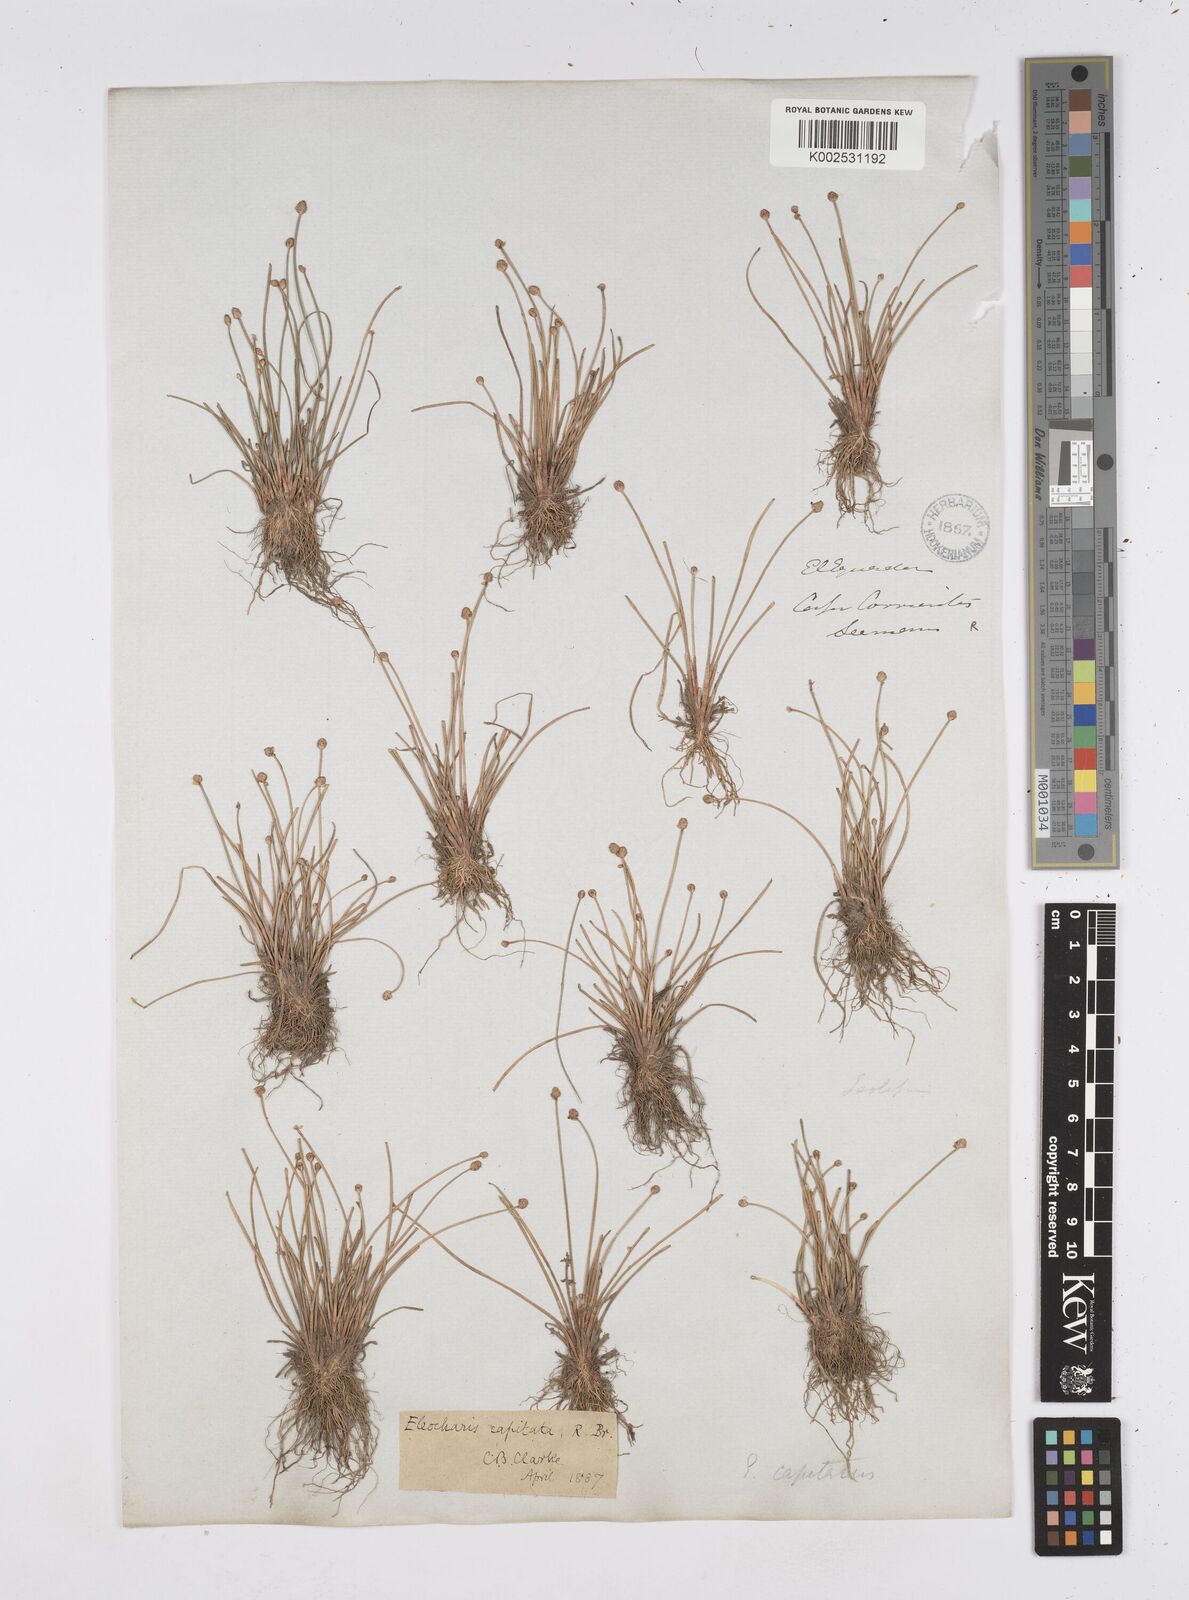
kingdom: Plantae
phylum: Tracheophyta
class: Liliopsida
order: Poales
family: Cyperaceae
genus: Eleocharis
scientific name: Eleocharis geniculata
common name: Canada spikesedge
